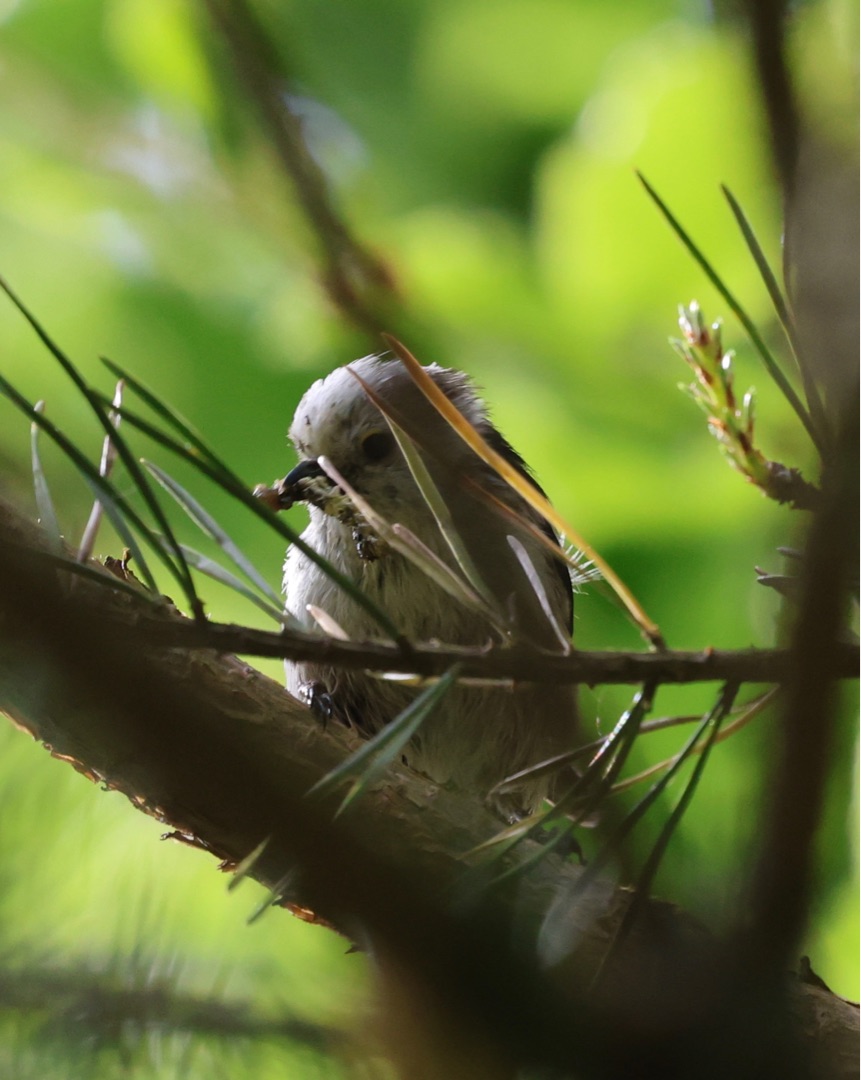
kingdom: Animalia
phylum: Chordata
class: Aves
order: Passeriformes
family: Aegithalidae
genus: Aegithalos
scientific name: Aegithalos caudatus
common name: Halemejse
